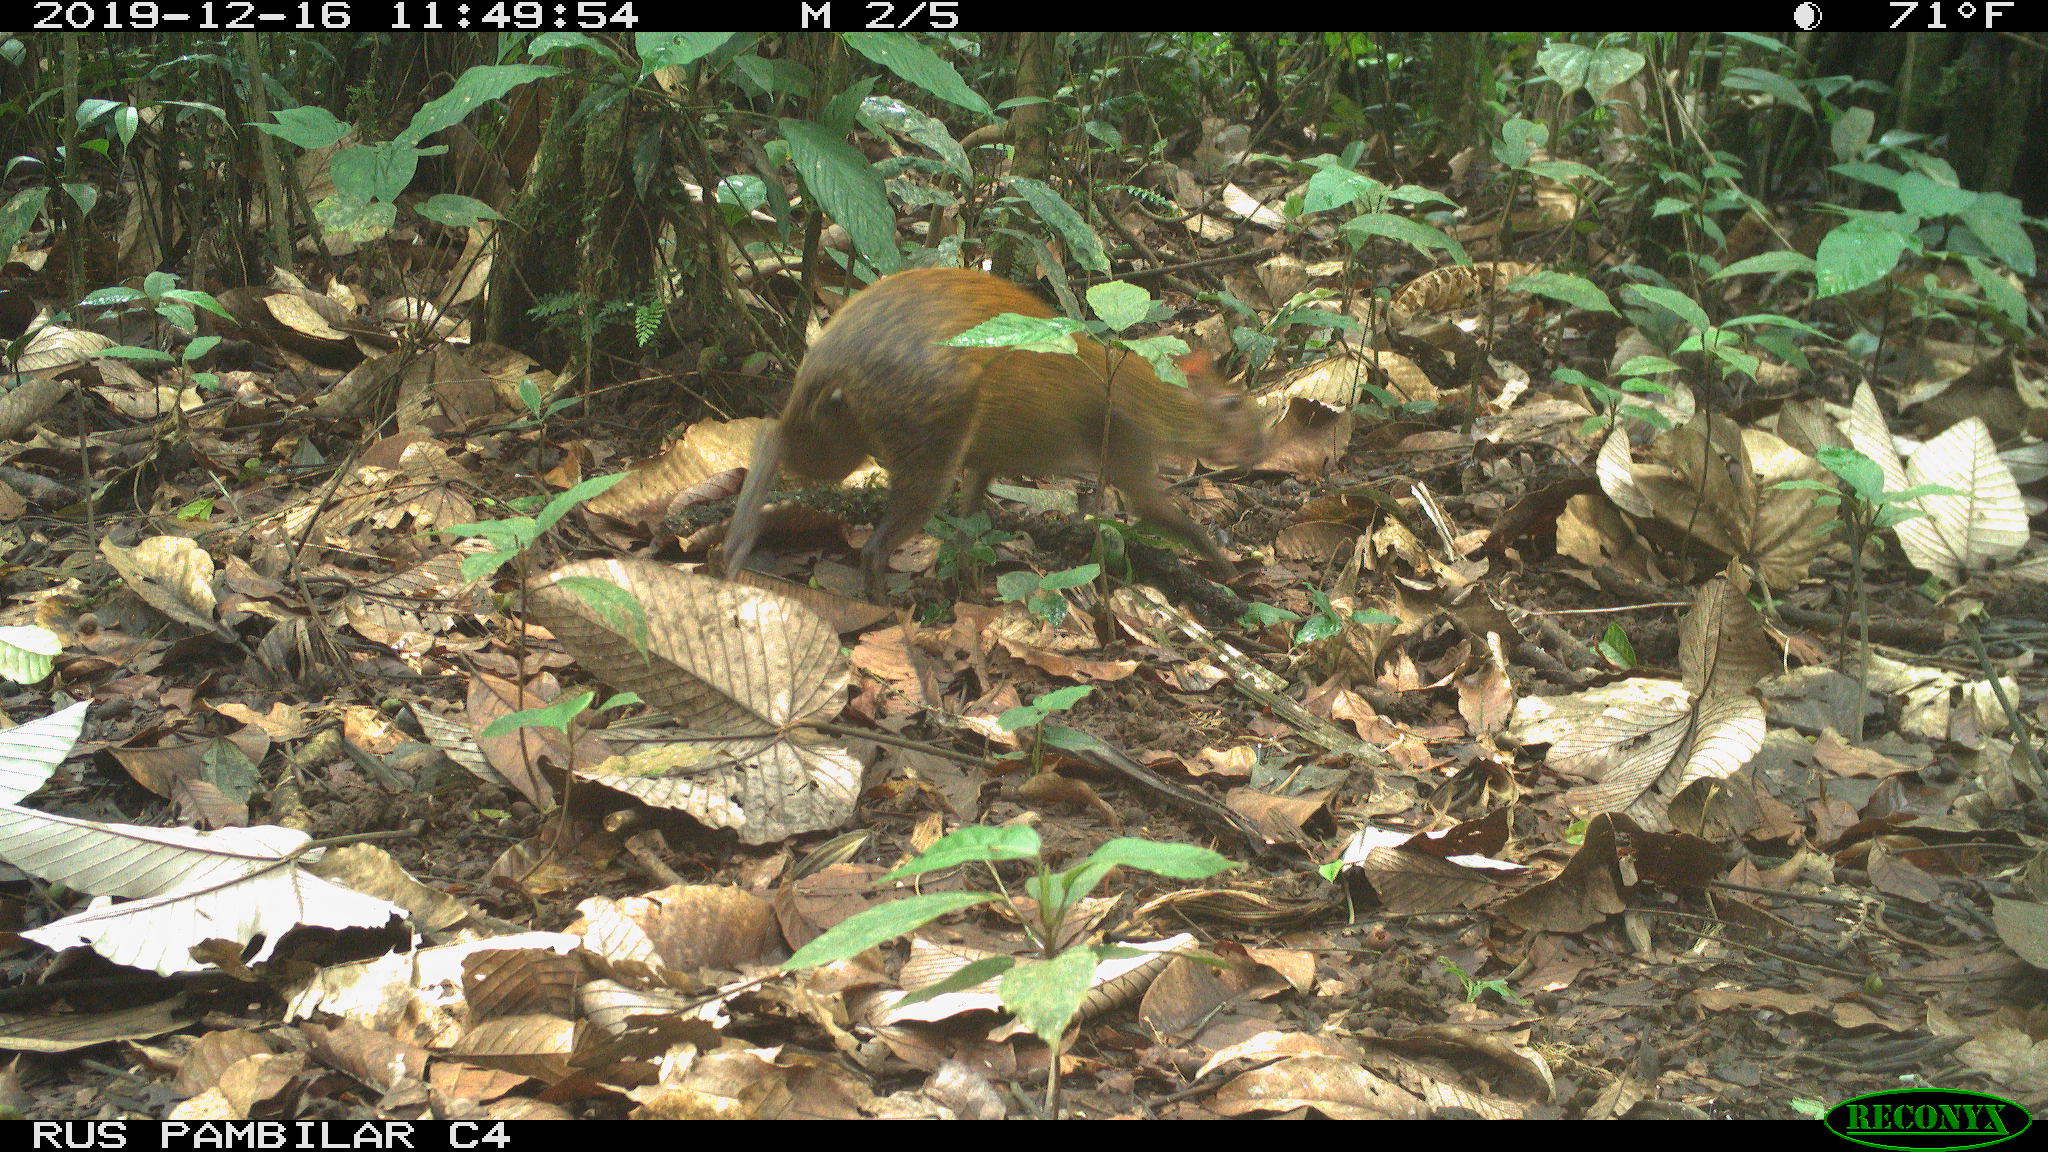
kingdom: Animalia
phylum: Chordata
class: Mammalia
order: Rodentia
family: Dasyproctidae
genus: Dasyprocta
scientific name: Dasyprocta punctata
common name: Central american agouti
